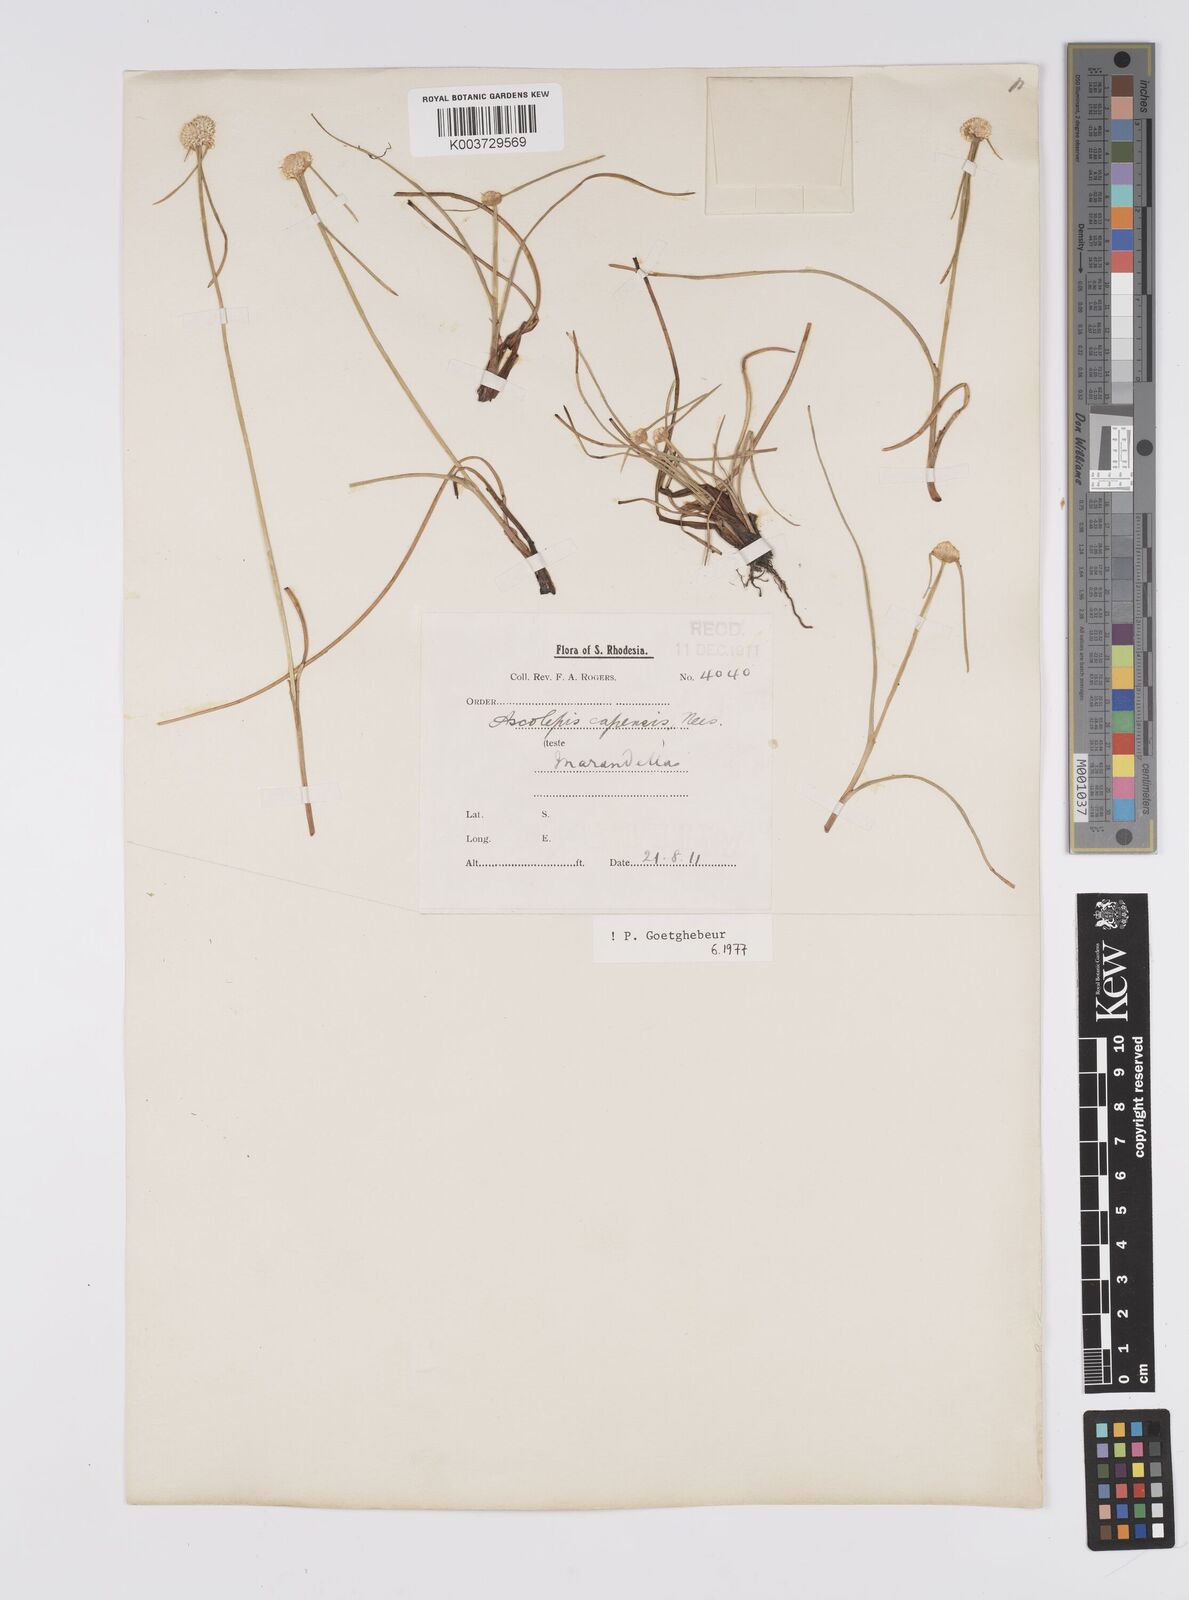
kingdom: Plantae
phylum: Tracheophyta
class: Liliopsida
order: Poales
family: Cyperaceae
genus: Cyperus
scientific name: Cyperus
